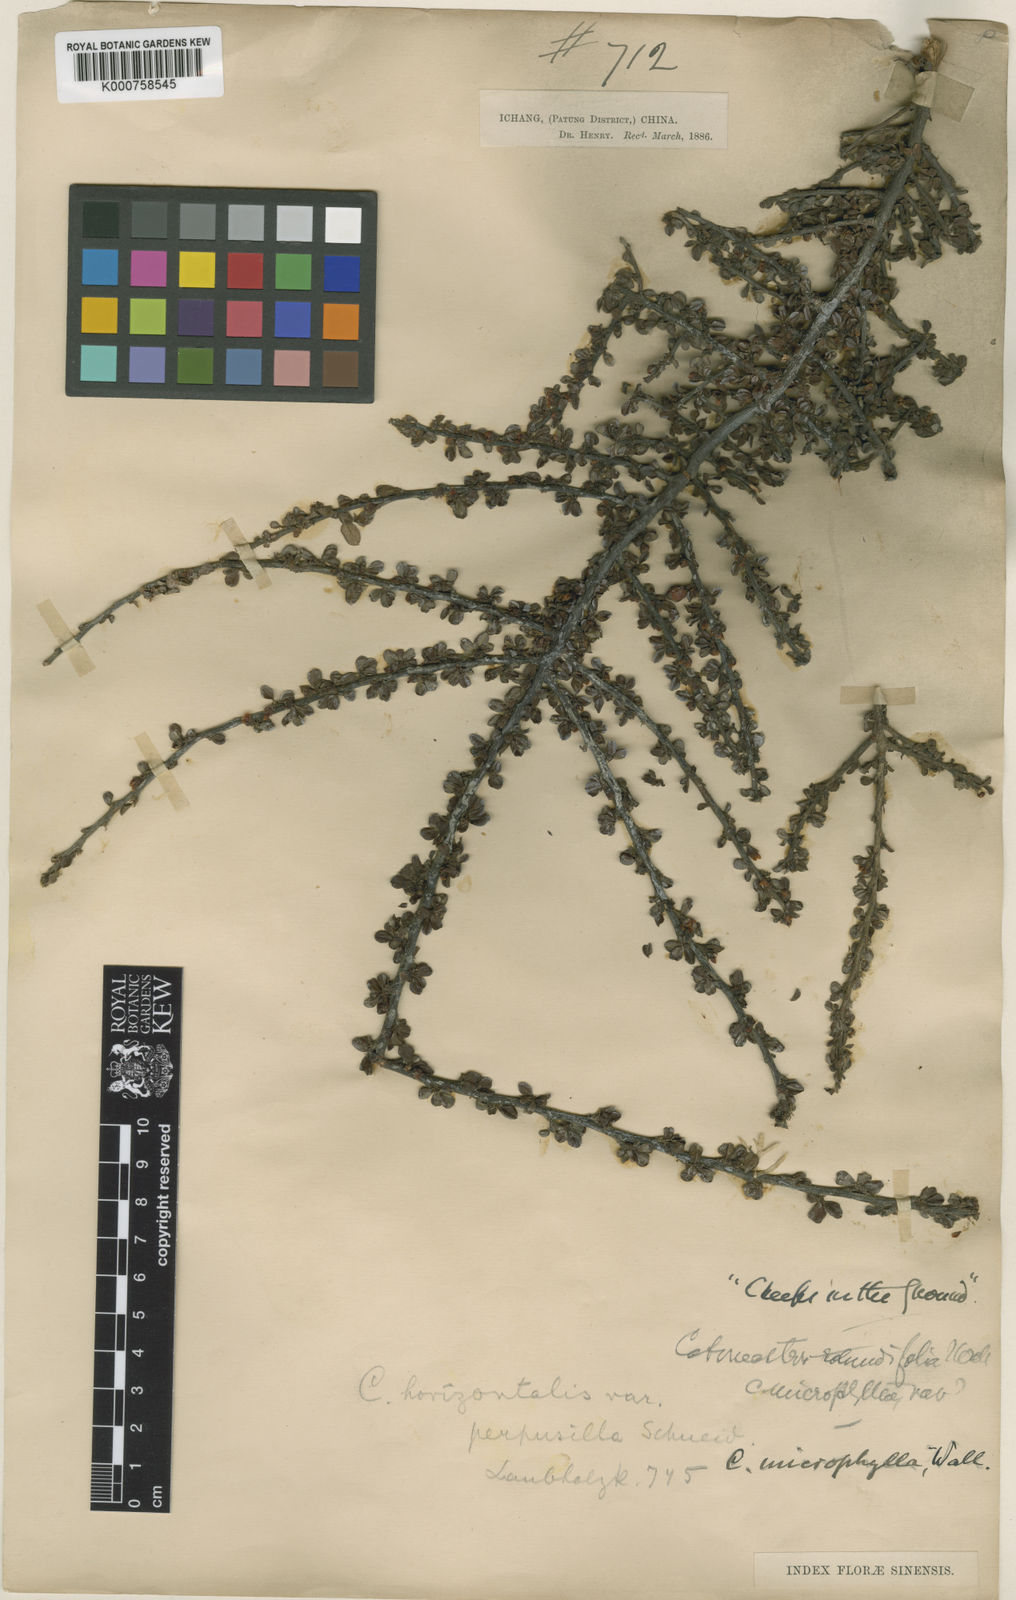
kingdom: Plantae
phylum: Tracheophyta
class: Magnoliopsida
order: Rosales
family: Rosaceae
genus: Cotoneaster
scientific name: Cotoneaster
